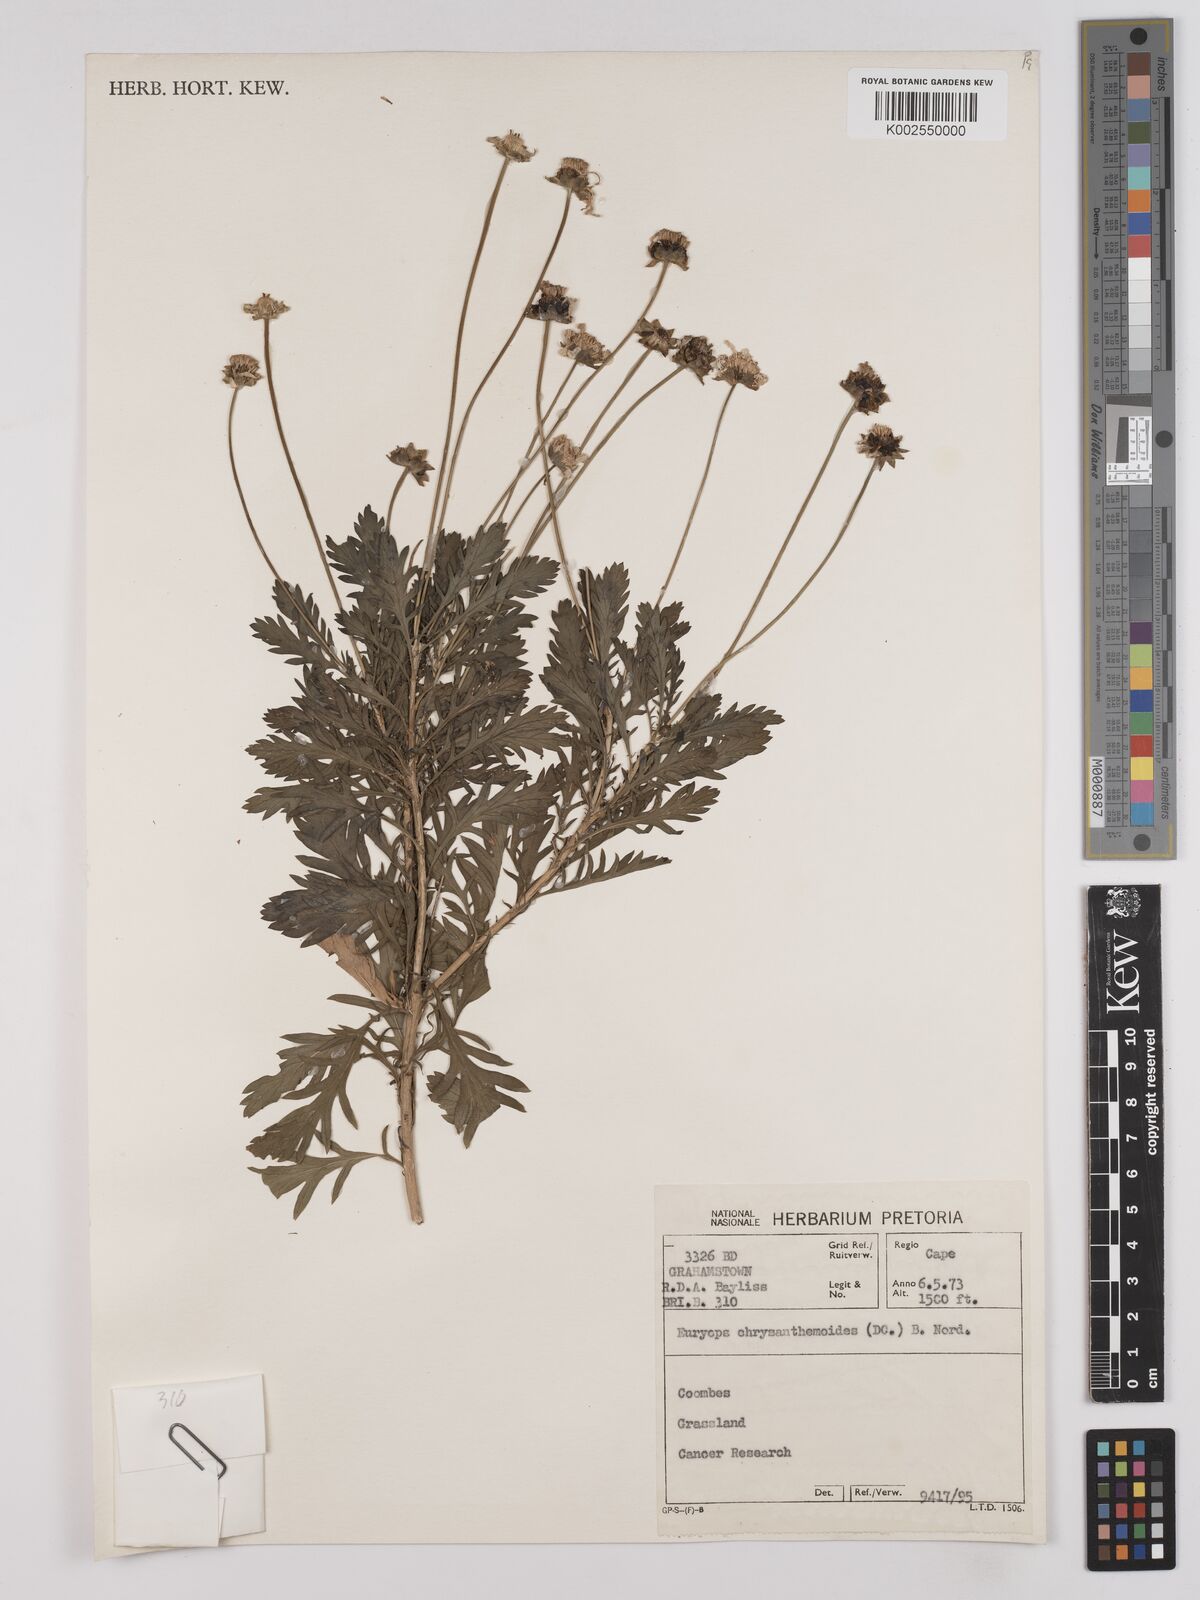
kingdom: Plantae
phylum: Tracheophyta
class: Magnoliopsida
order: Asterales
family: Asteraceae
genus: Euryops
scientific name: Euryops chrysanthemoides
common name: Bull's eye
